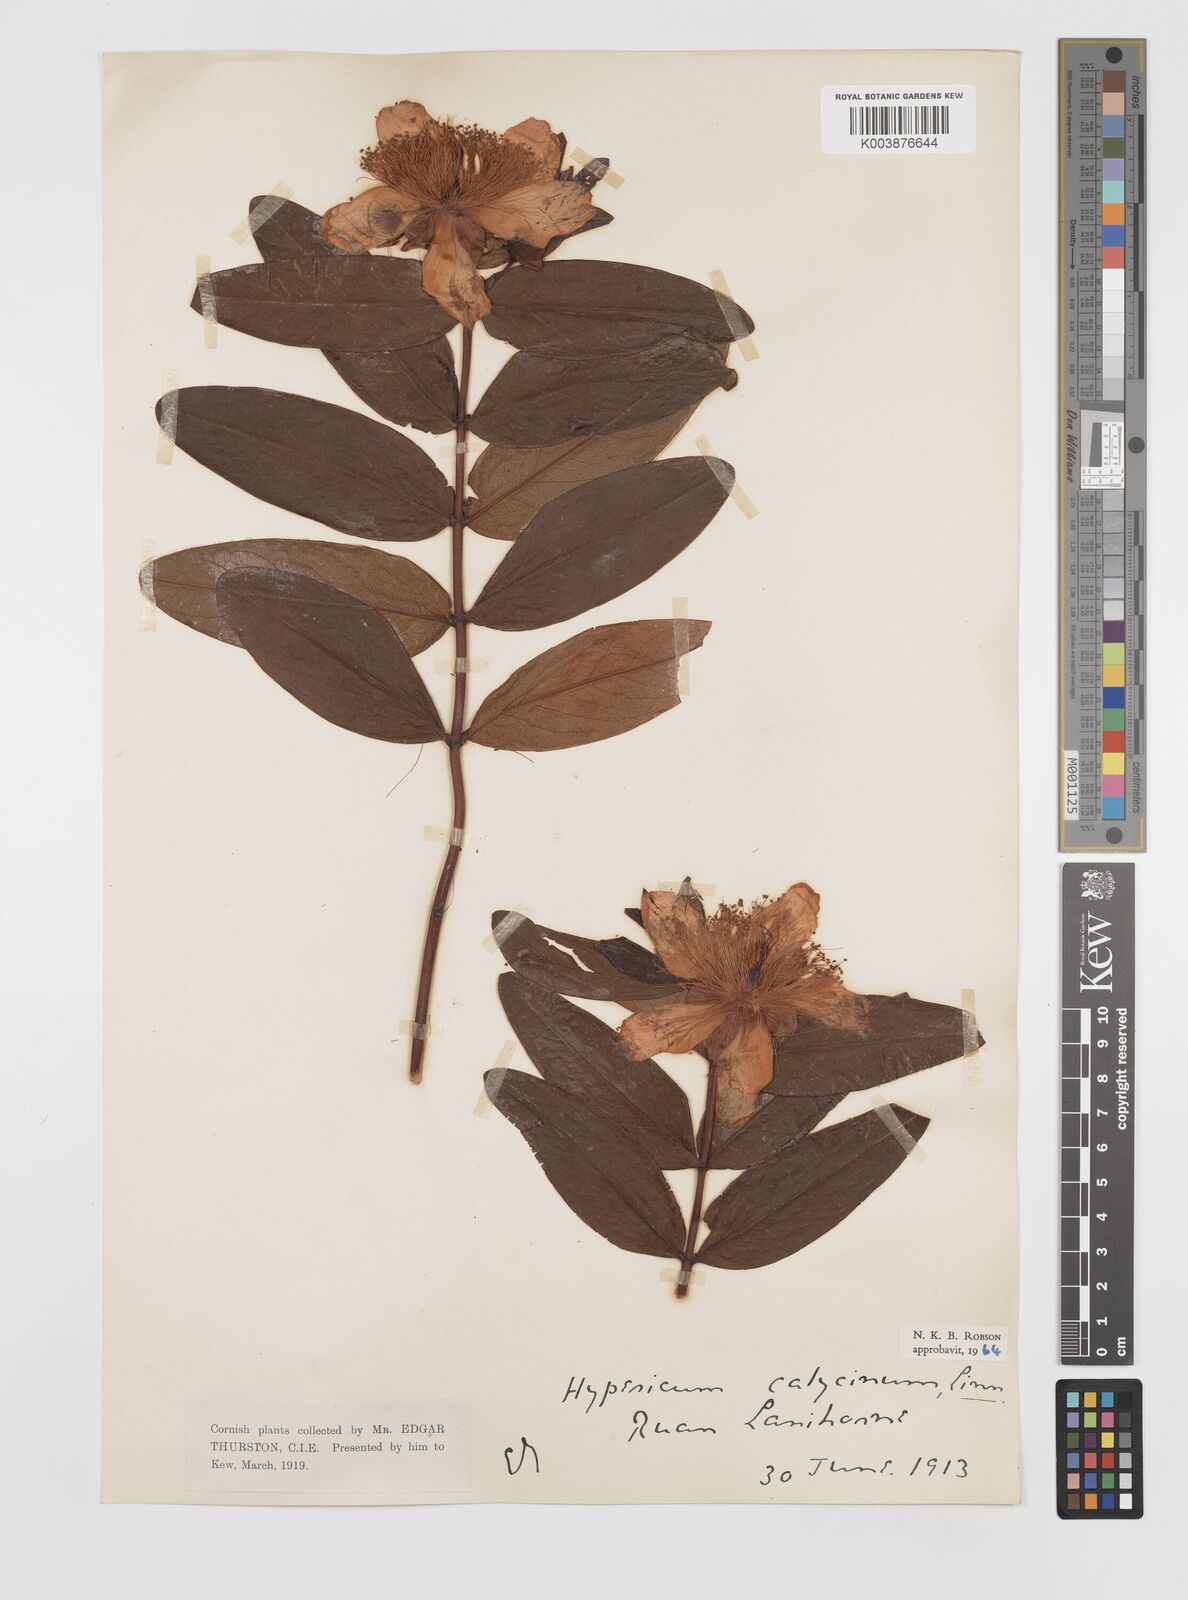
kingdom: Plantae
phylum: Tracheophyta
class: Magnoliopsida
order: Malpighiales
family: Hypericaceae
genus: Hypericum
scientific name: Hypericum calycinum
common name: Rose-of-sharon
